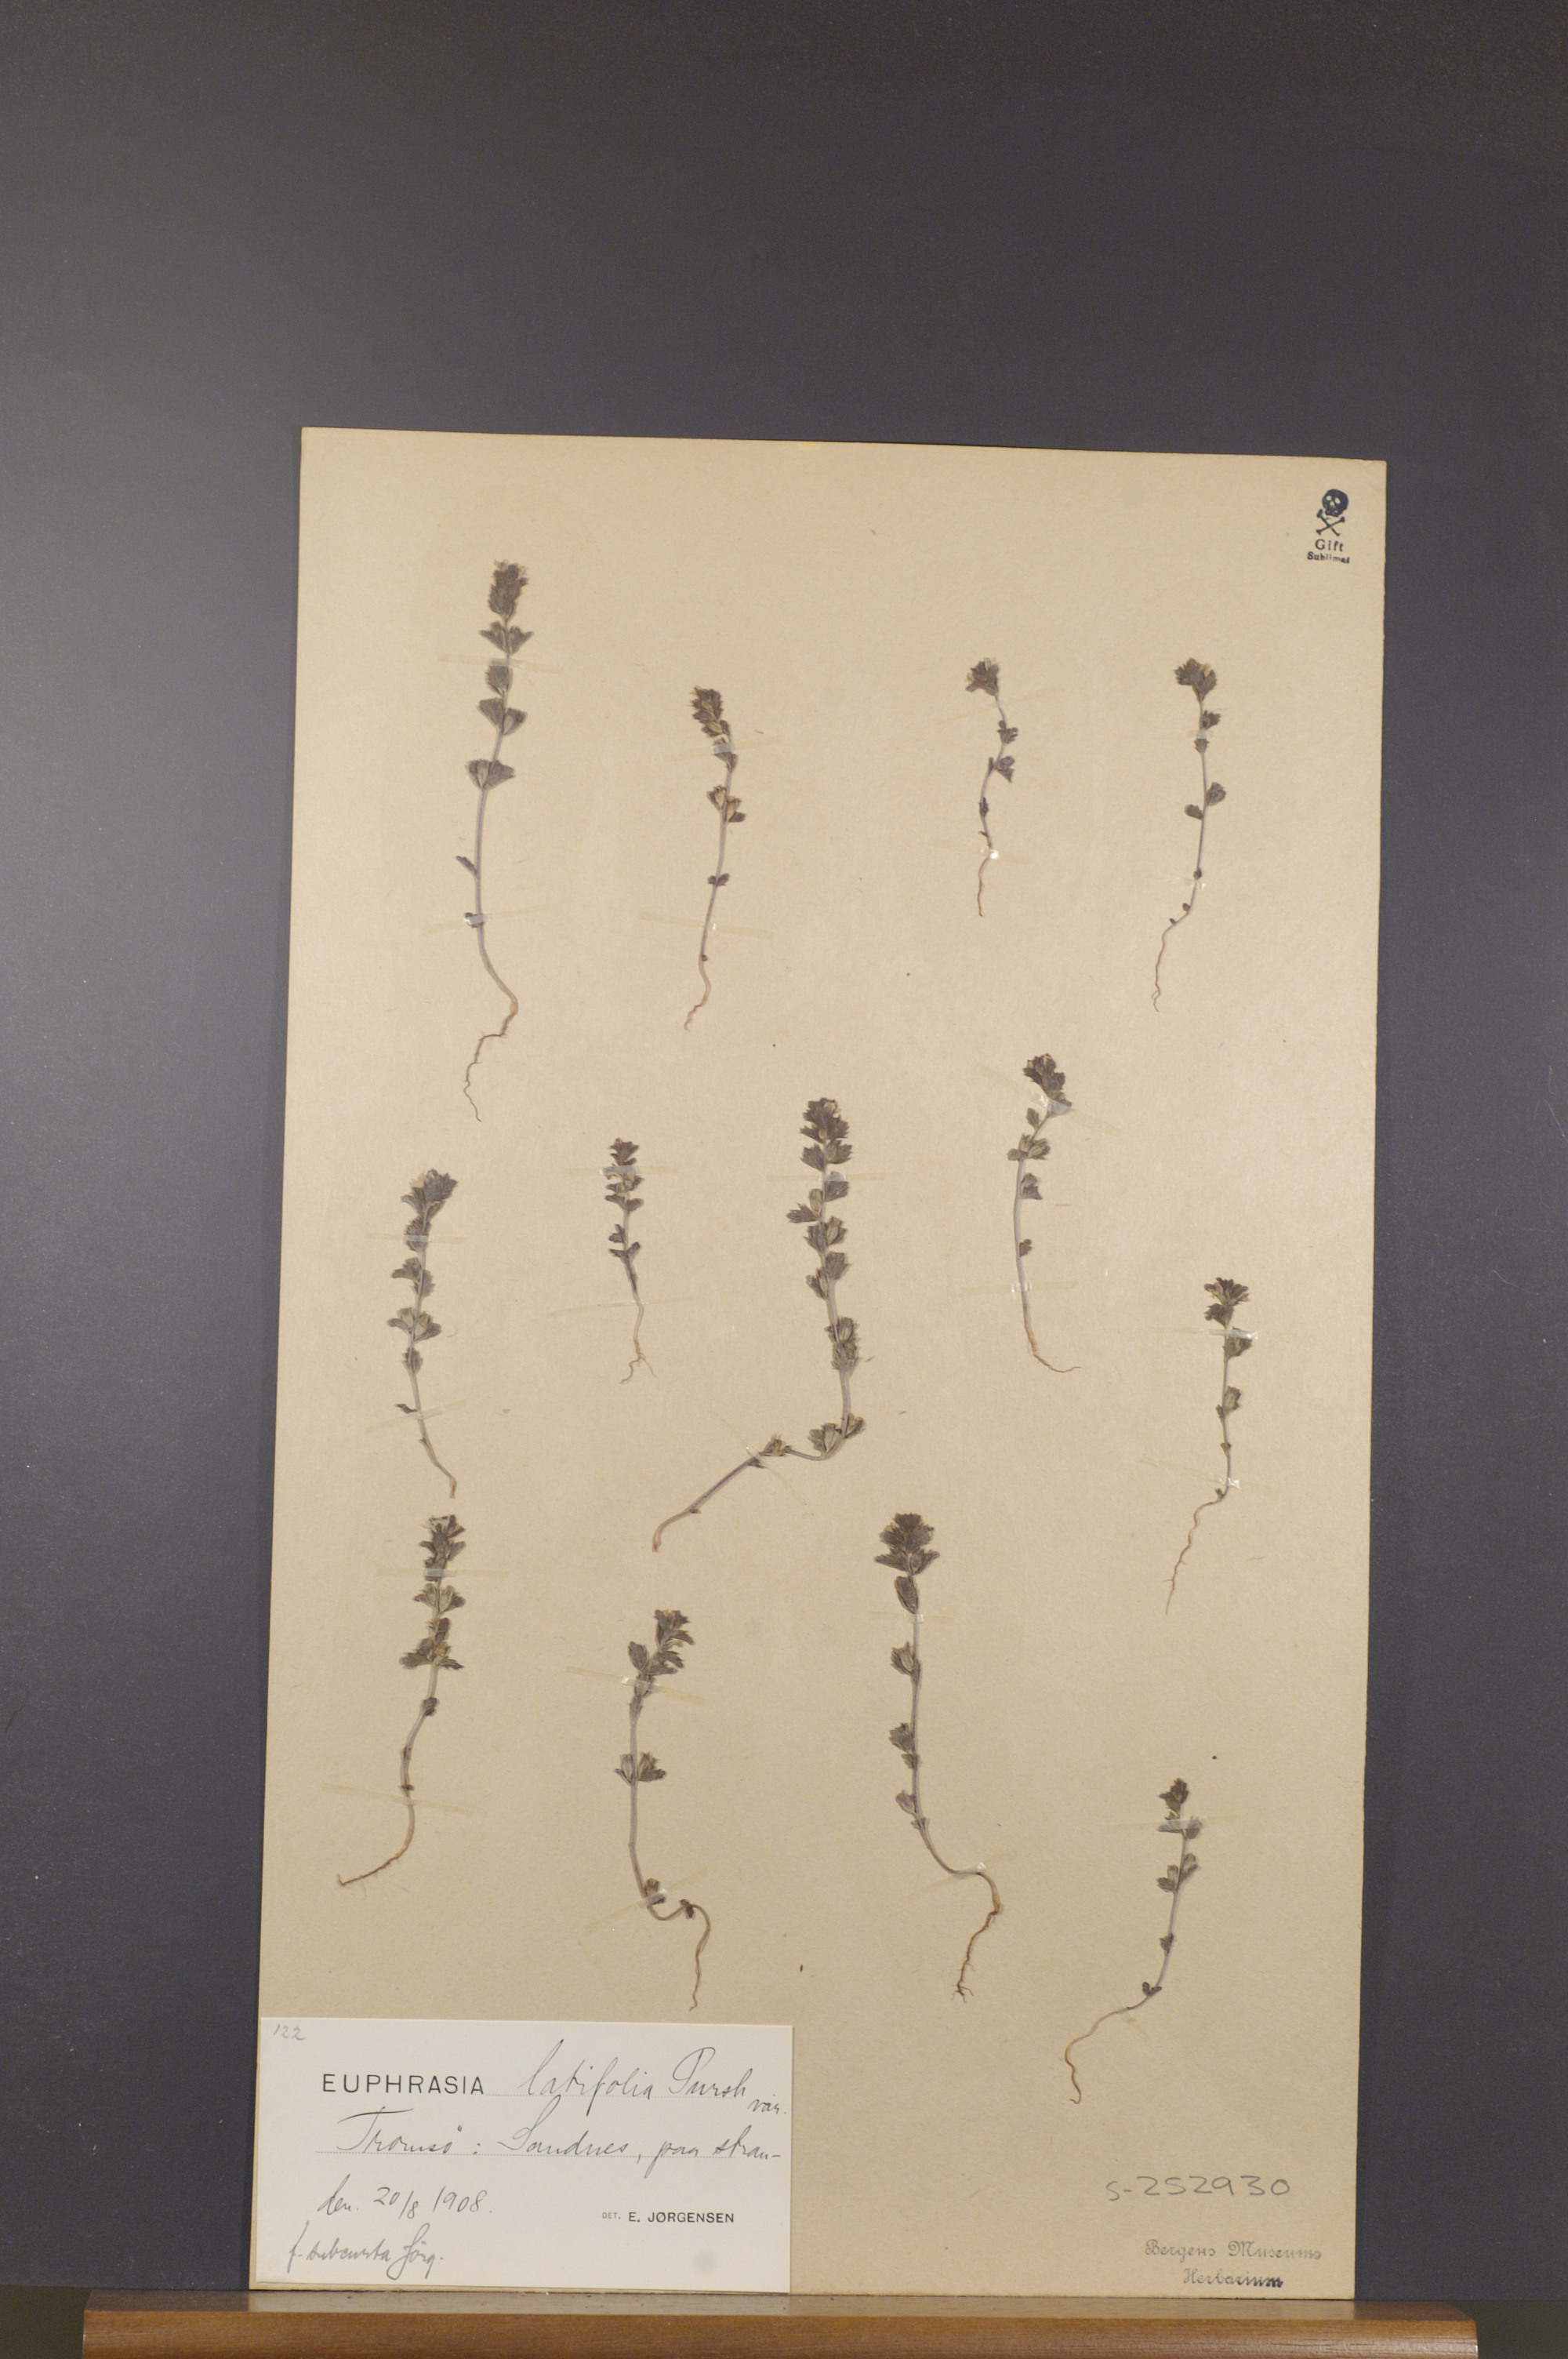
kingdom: Plantae
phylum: Tracheophyta
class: Magnoliopsida
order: Lamiales
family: Orobanchaceae
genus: Euphrasia
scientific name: Euphrasia wettsteinii
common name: Wettstein's eyebright
